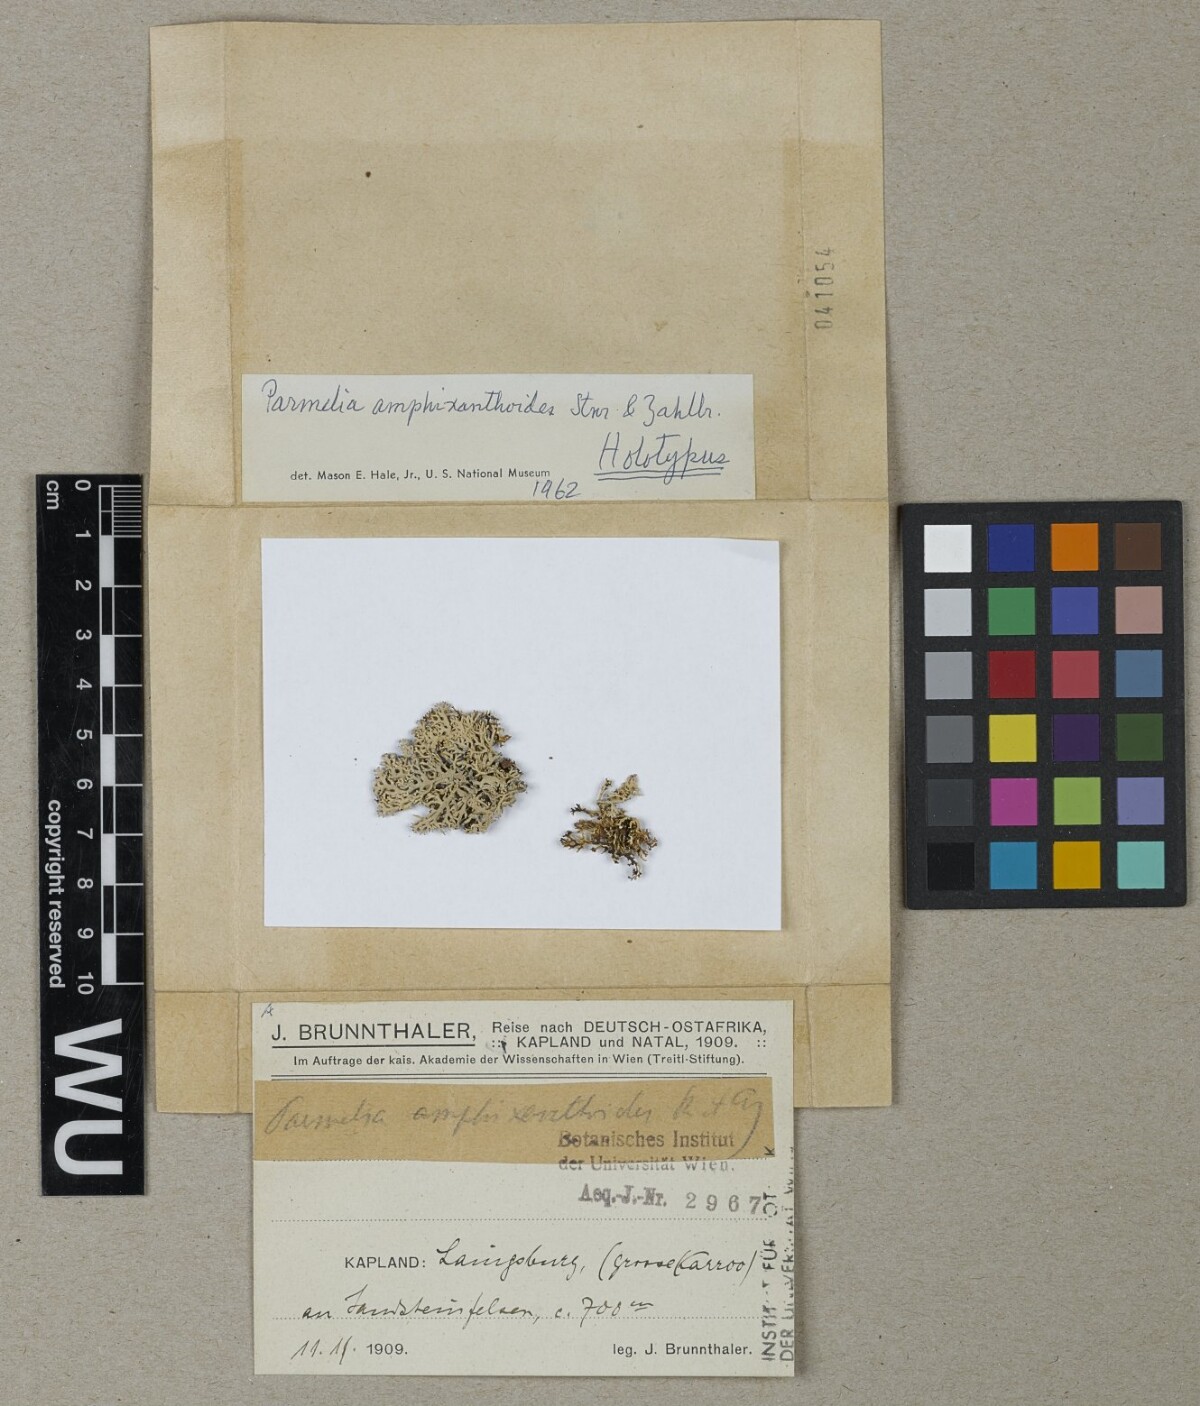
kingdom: Fungi
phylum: Ascomycota
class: Lecanoromycetes
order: Lecanorales
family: Parmeliaceae
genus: Parmelia
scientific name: Parmelia
